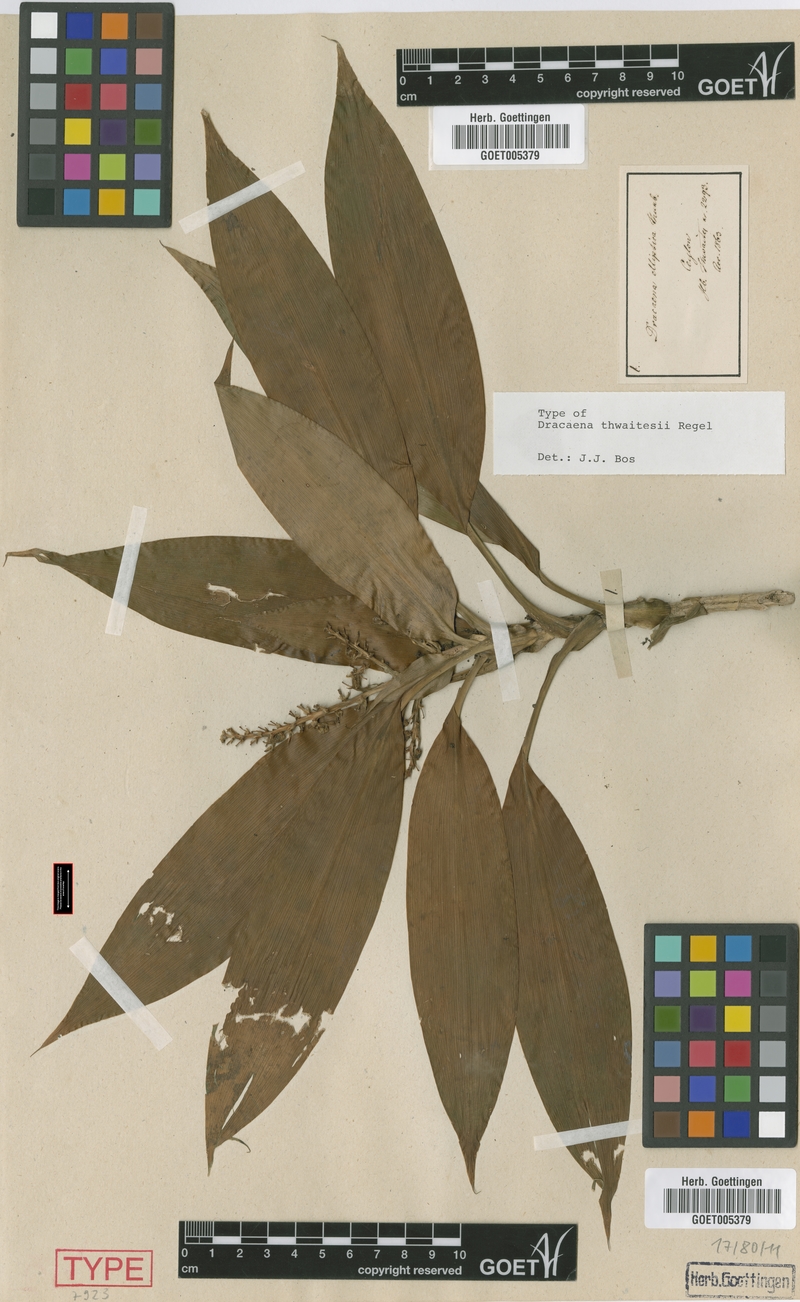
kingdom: Plantae
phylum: Tracheophyta
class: Liliopsida
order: Asparagales
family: Asparagaceae
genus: Dracaena
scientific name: Dracaena thwaitesii
